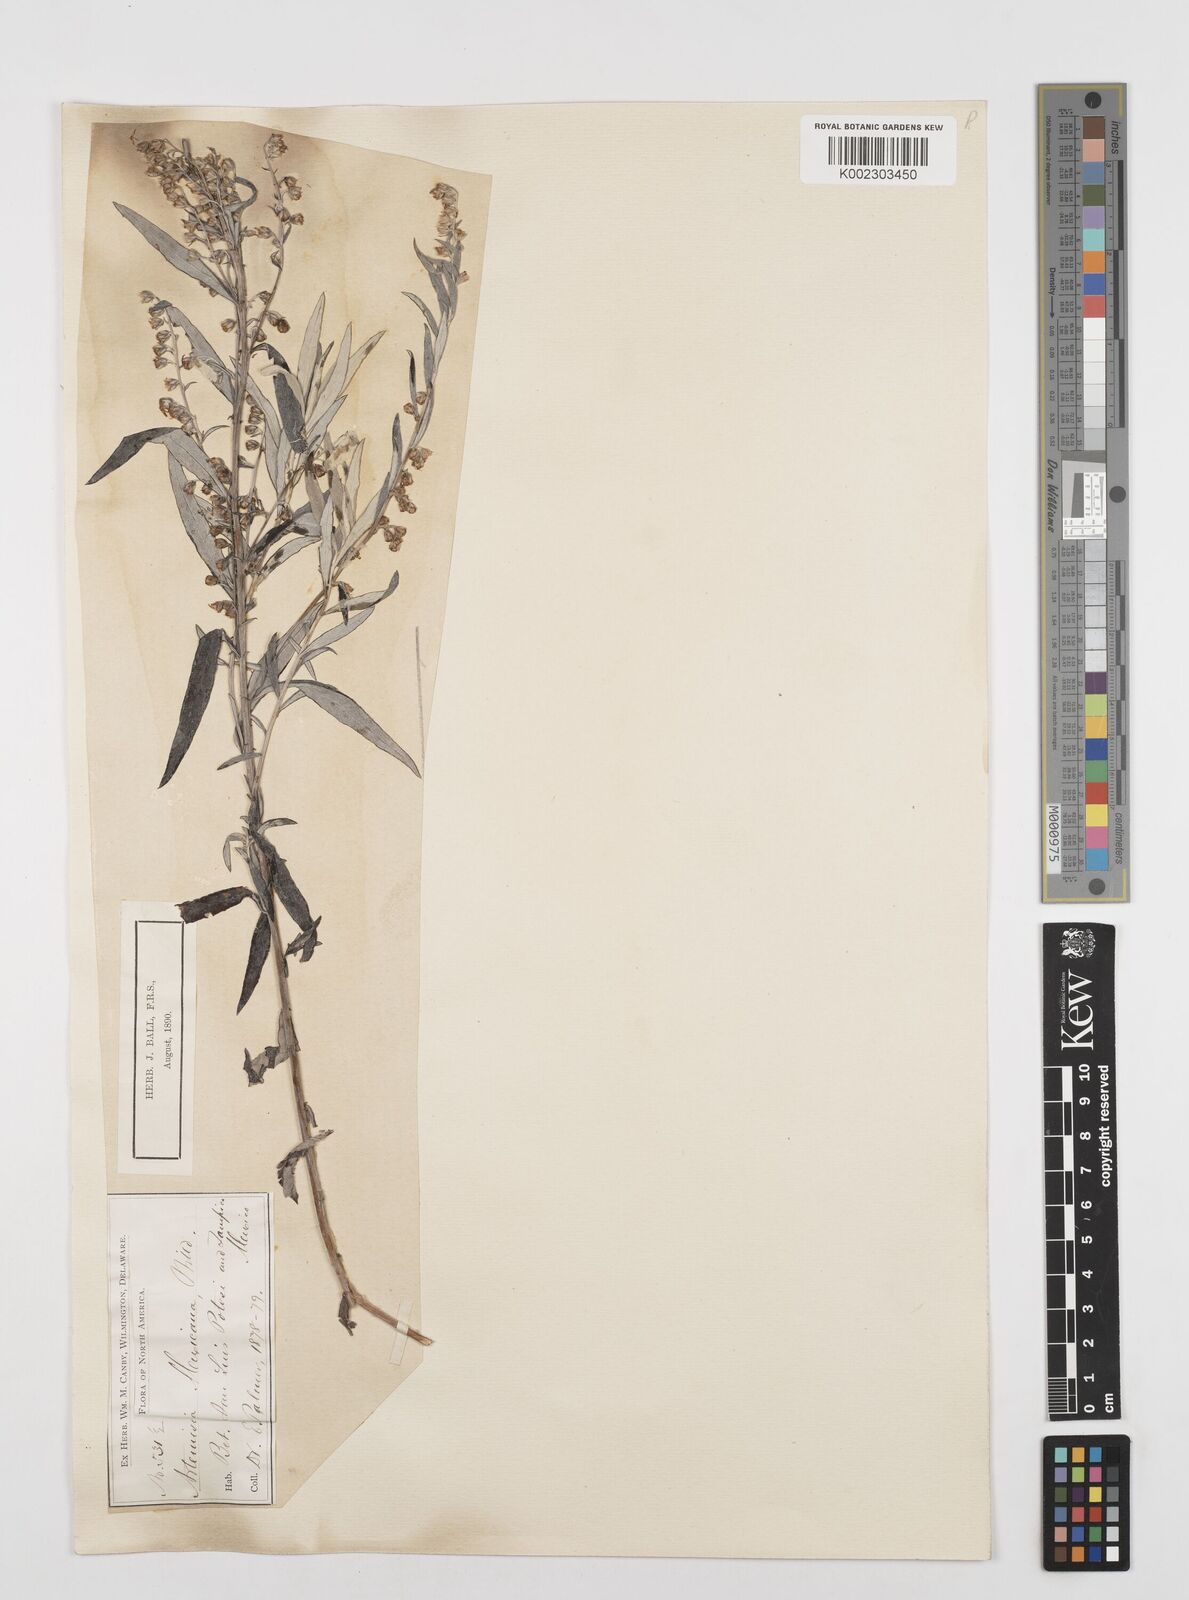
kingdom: Plantae
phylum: Tracheophyta
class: Magnoliopsida
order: Asterales
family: Asteraceae
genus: Artemisia
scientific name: Artemisia ludoviciana
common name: Western mugwort
